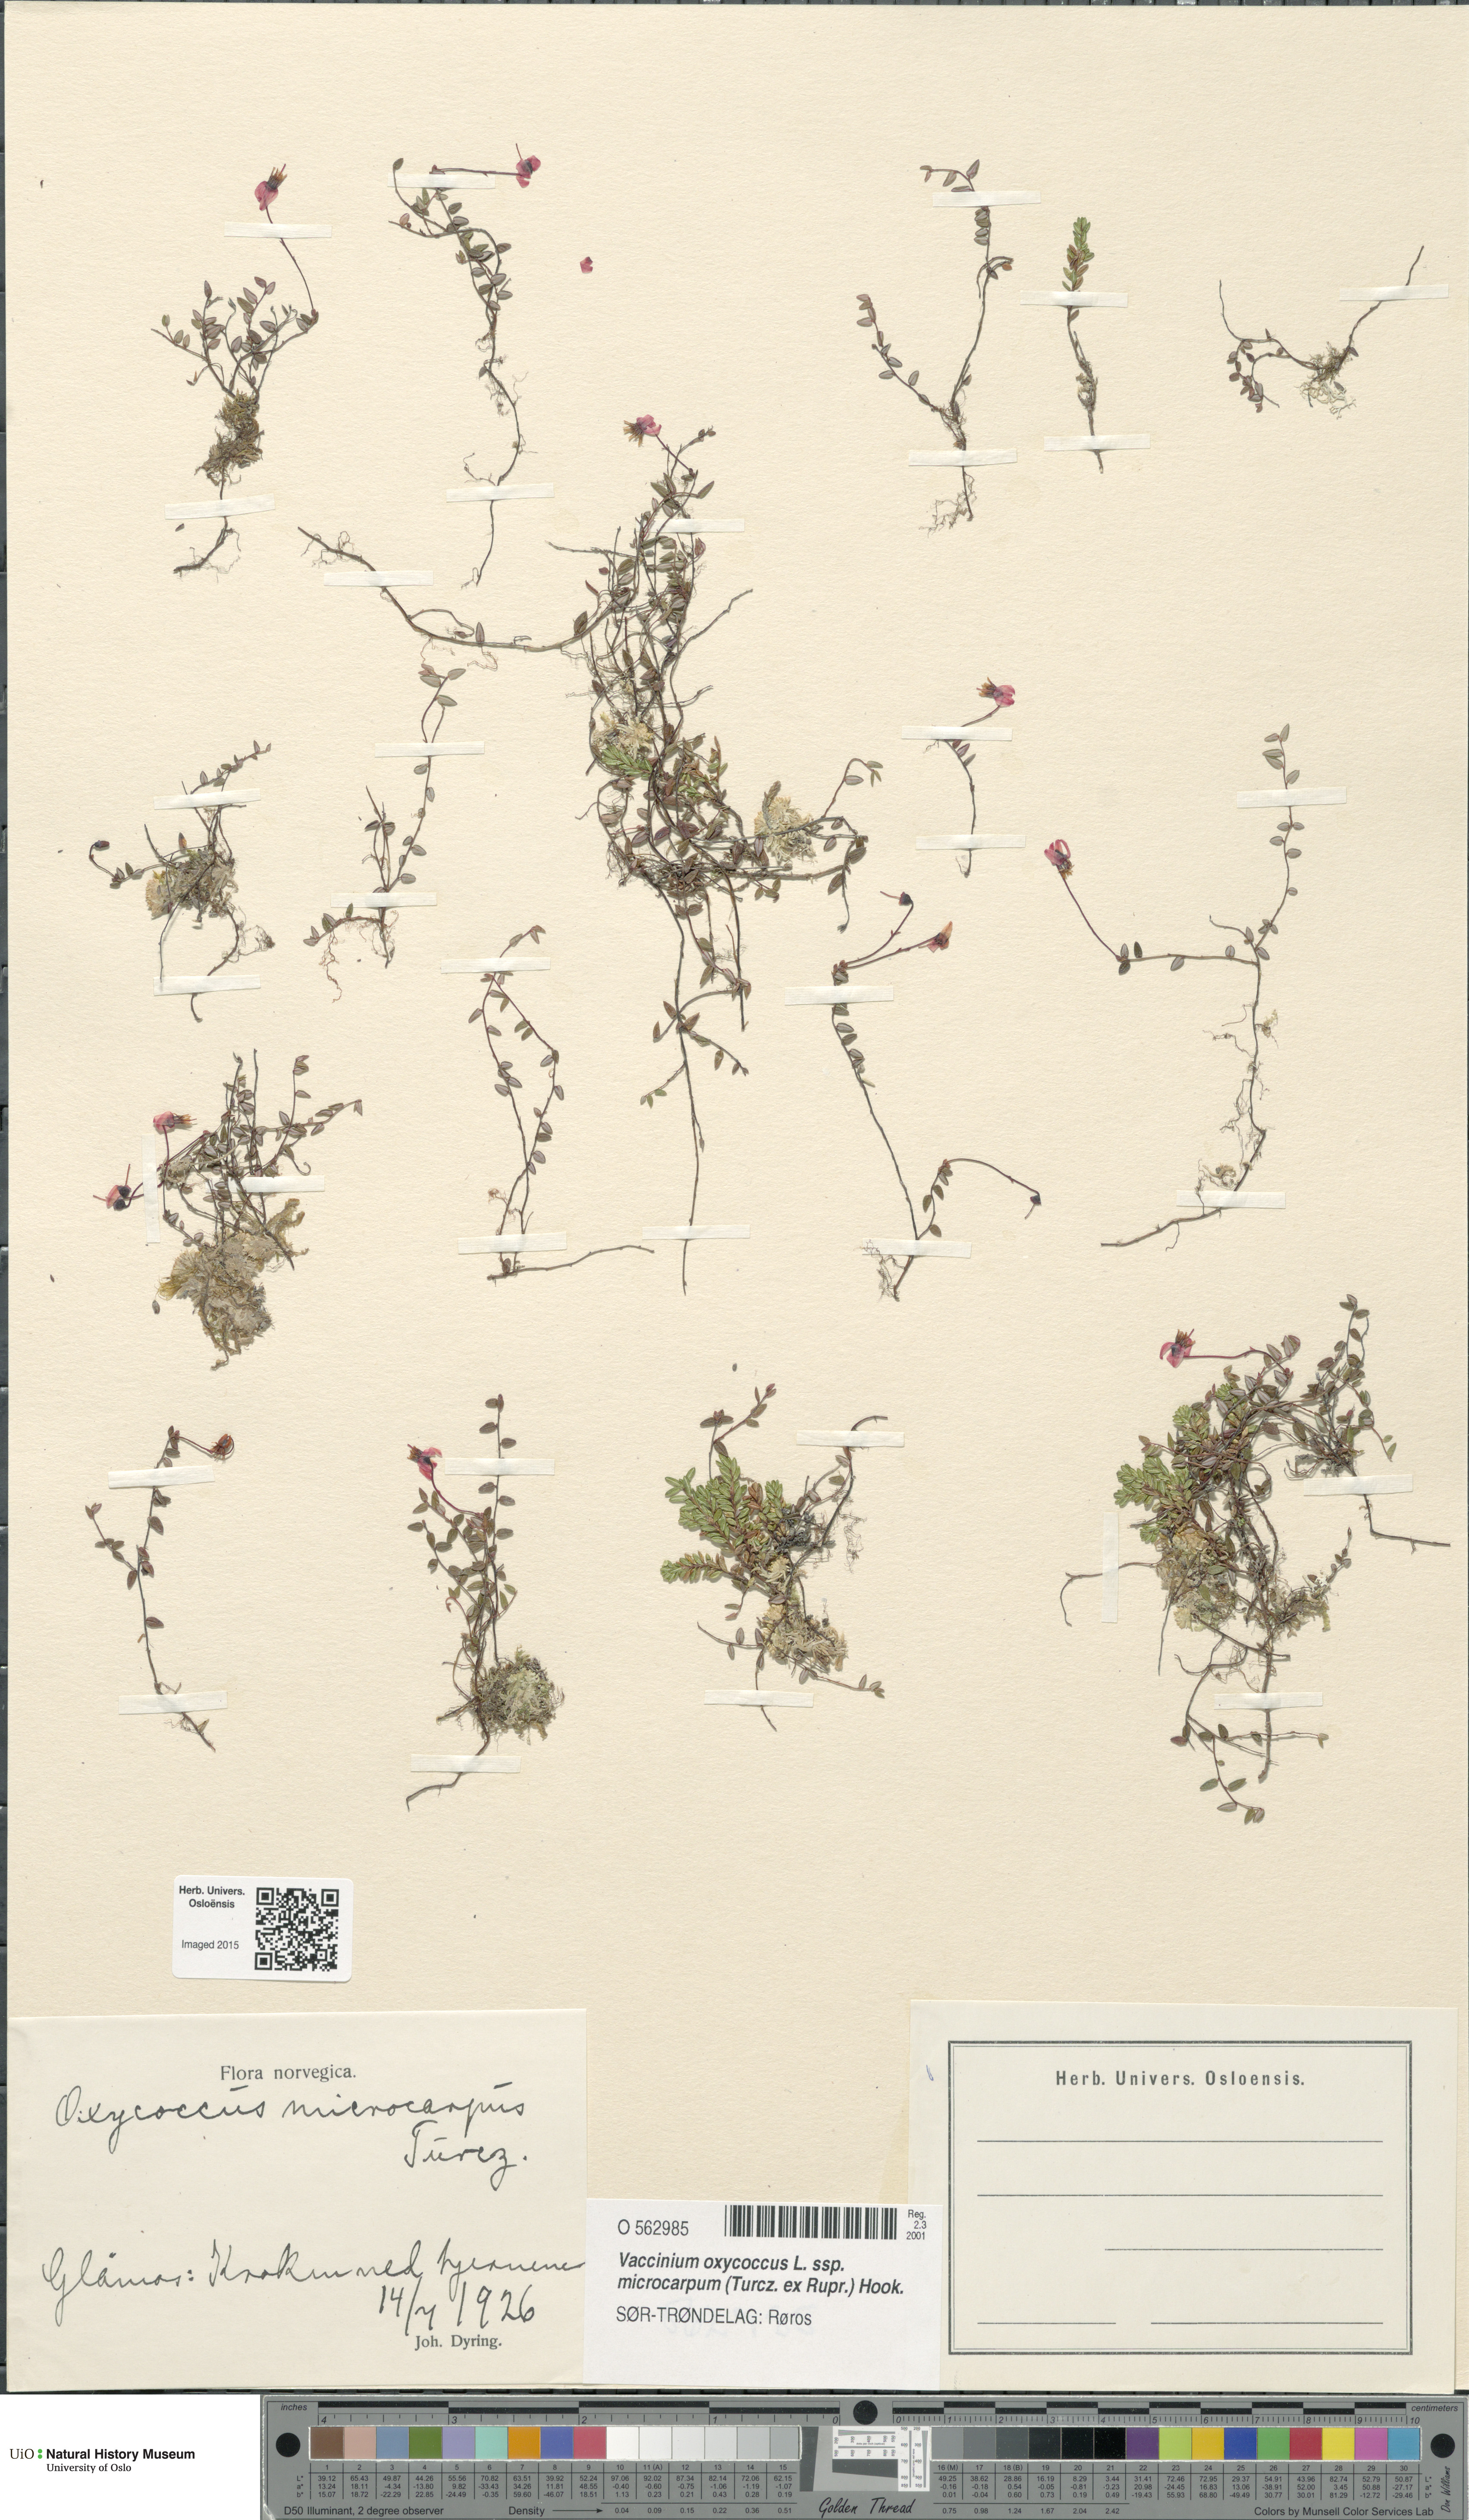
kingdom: Plantae
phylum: Tracheophyta
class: Magnoliopsida
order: Ericales
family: Ericaceae
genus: Vaccinium
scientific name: Vaccinium microcarpum
